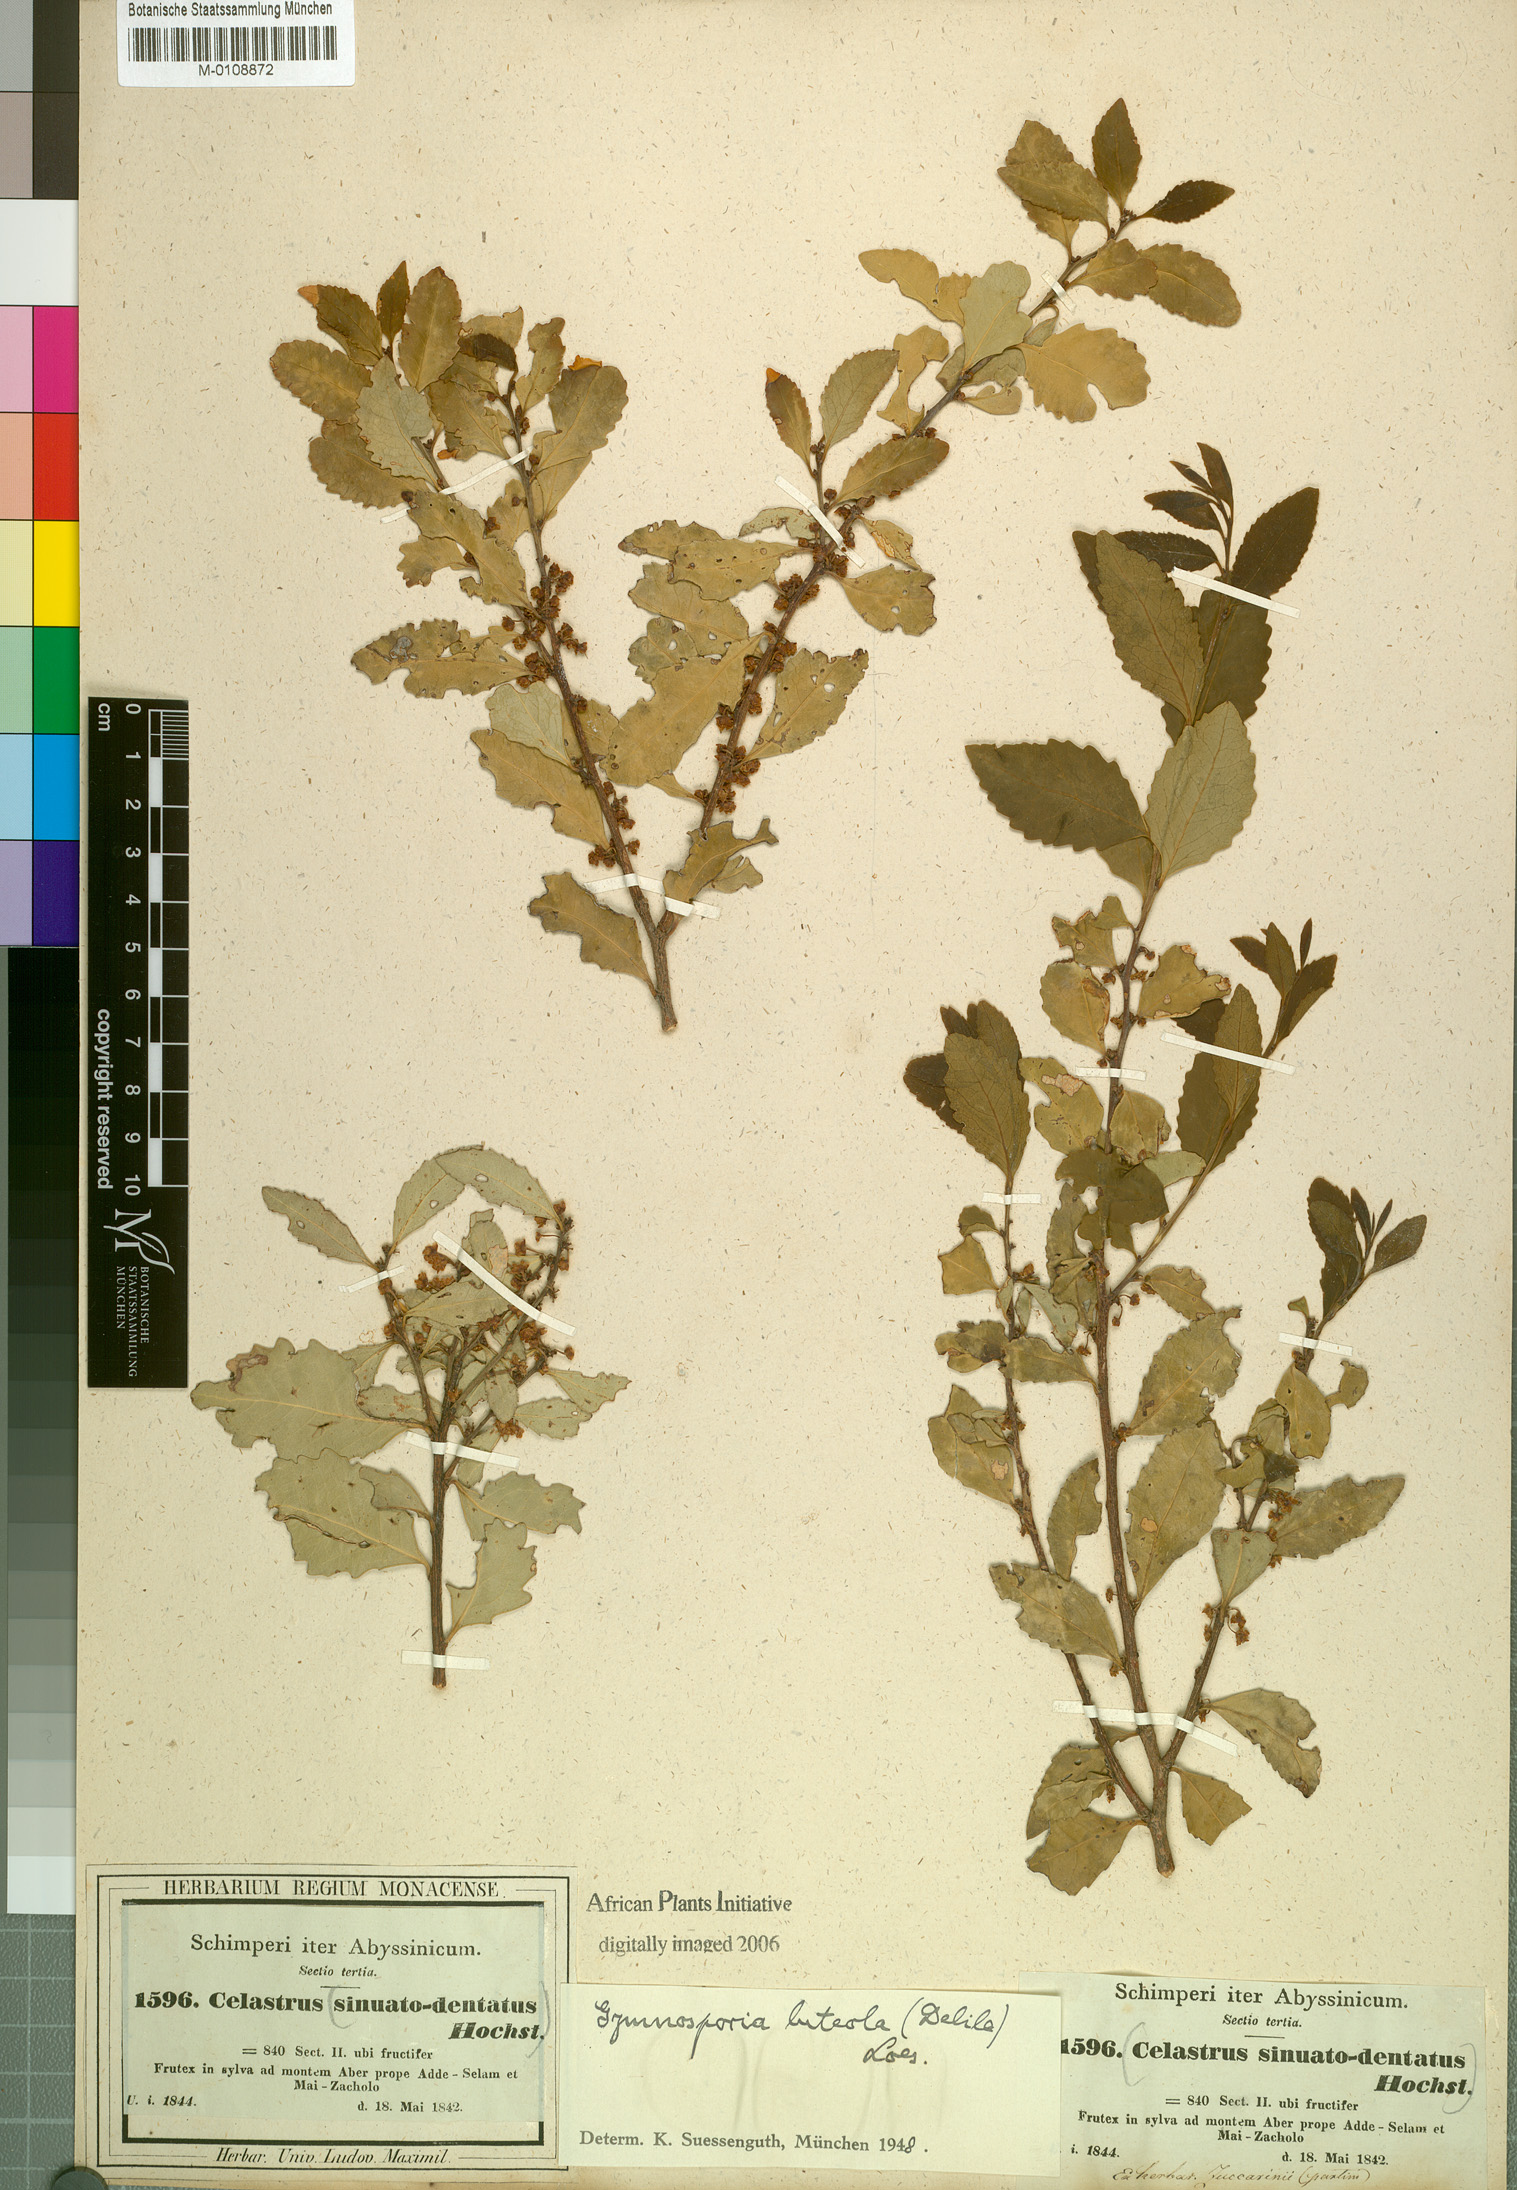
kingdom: Plantae
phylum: Tracheophyta
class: Magnoliopsida
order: Celastrales
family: Celastraceae
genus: Gymnosporia
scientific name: Gymnosporia undata
